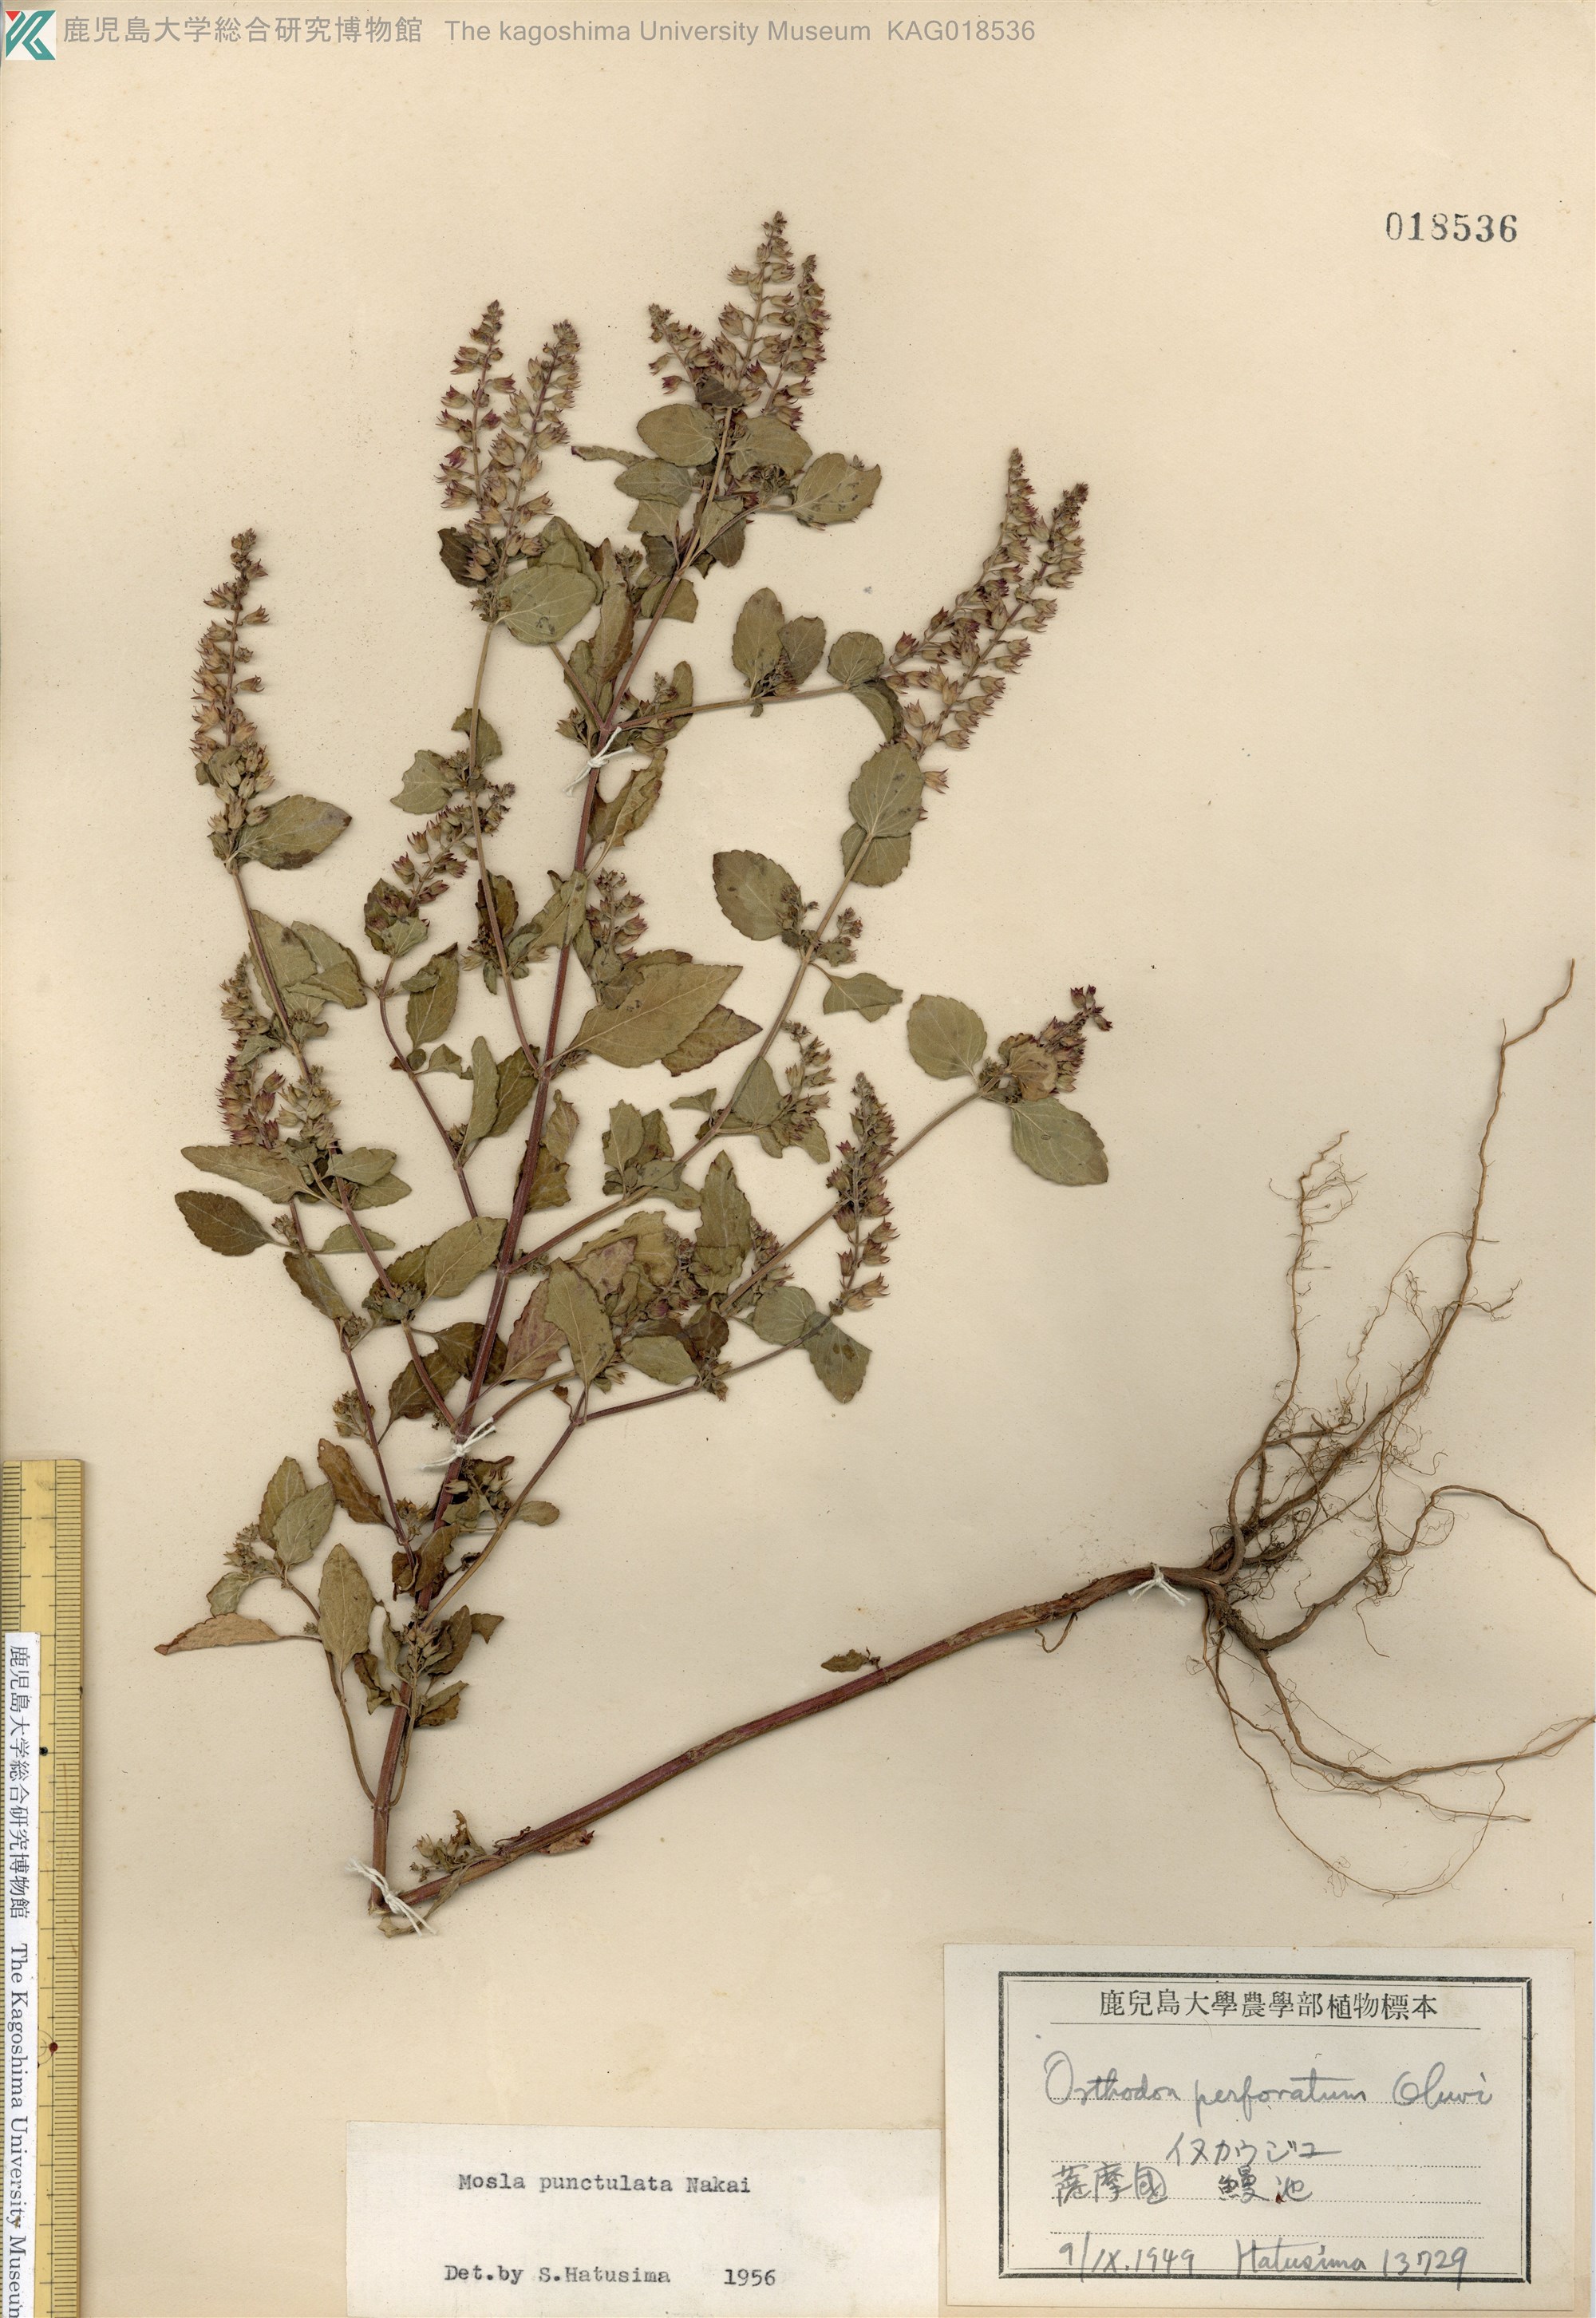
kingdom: Plantae
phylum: Tracheophyta
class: Magnoliopsida
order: Lamiales
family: Lamiaceae
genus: Mosla
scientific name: Mosla scabra
